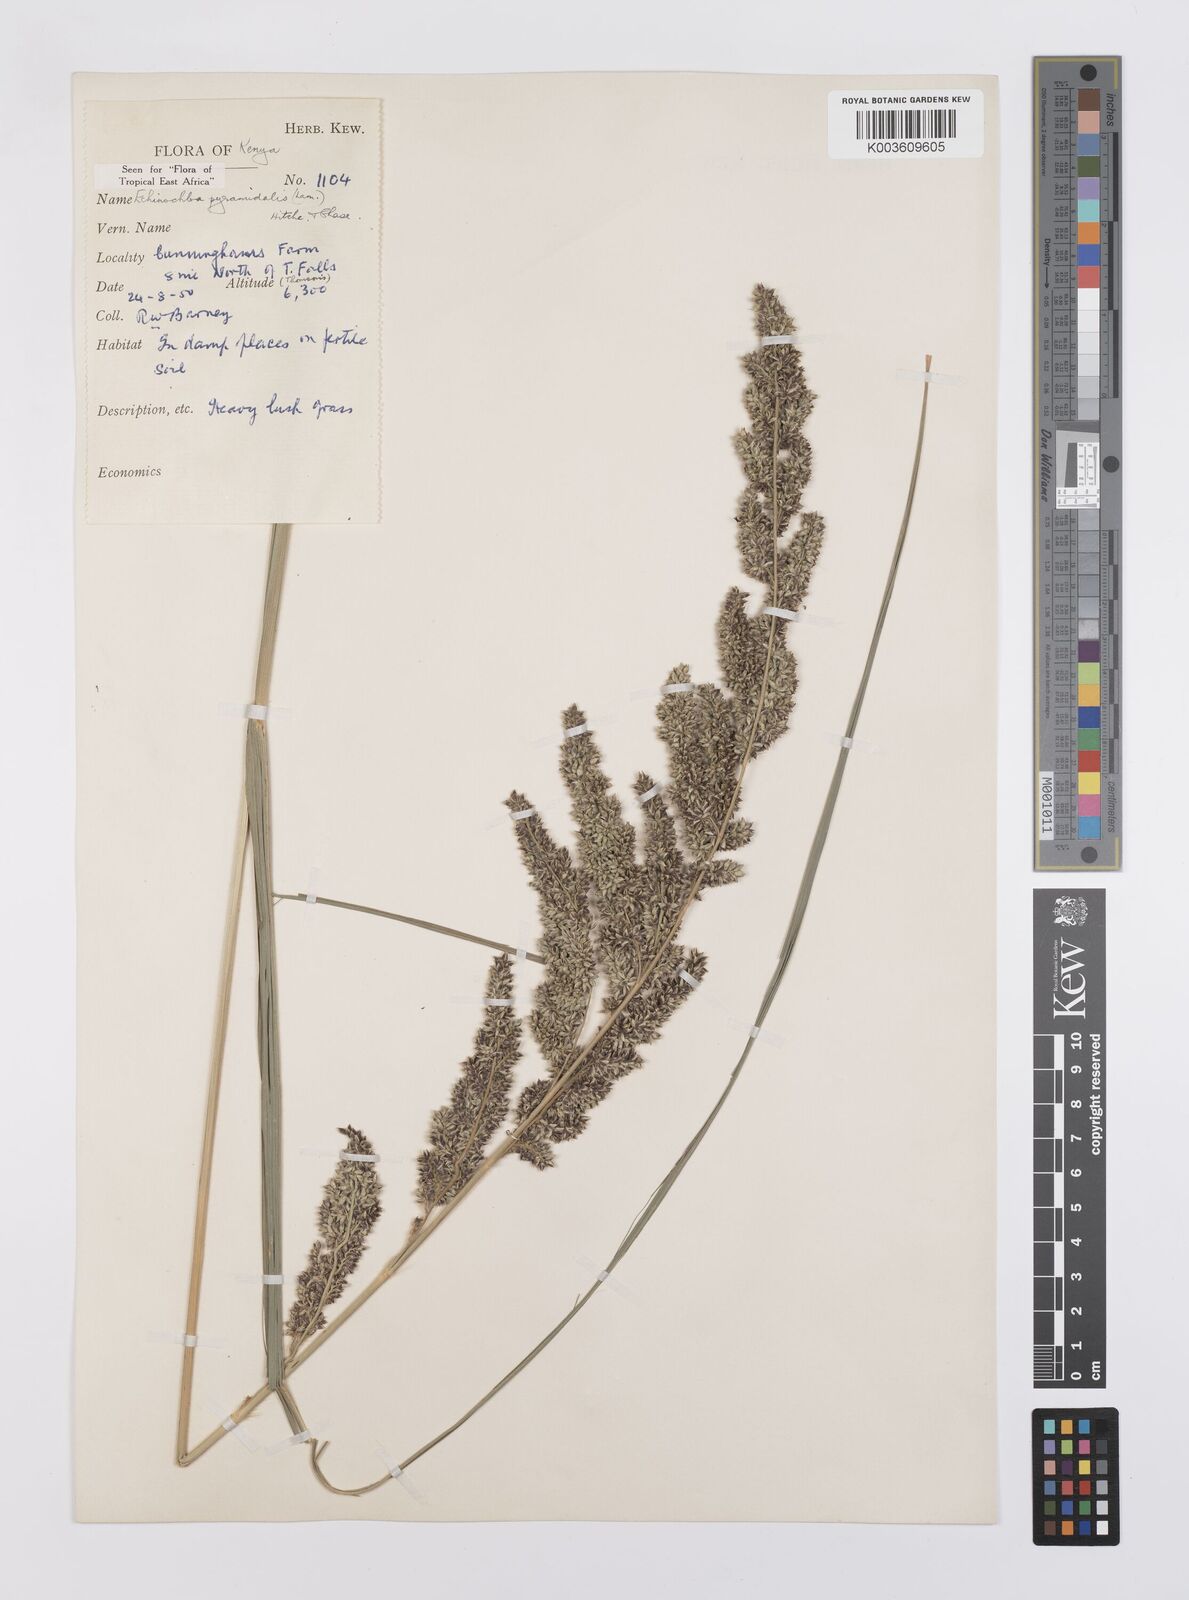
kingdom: Plantae
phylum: Tracheophyta
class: Liliopsida
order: Poales
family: Poaceae
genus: Echinochloa
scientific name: Echinochloa
